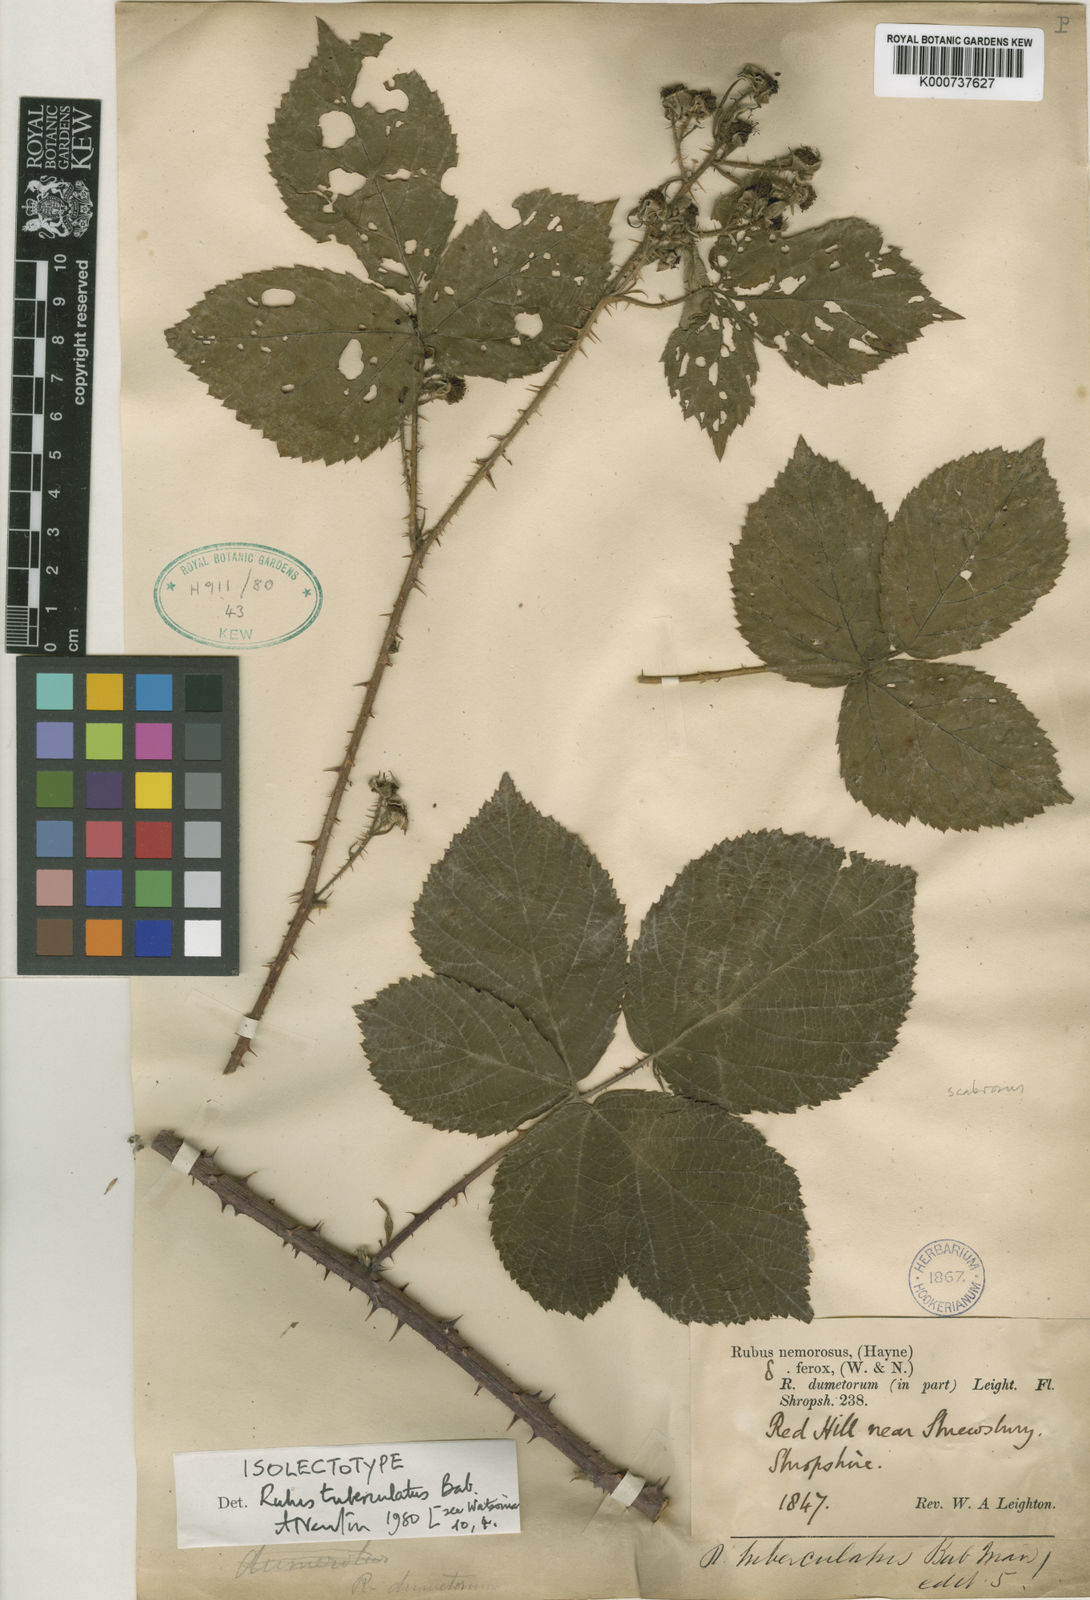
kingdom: Plantae
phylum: Tracheophyta
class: Magnoliopsida
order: Rosales
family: Rosaceae
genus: Rubus
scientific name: Rubus horrefactus
